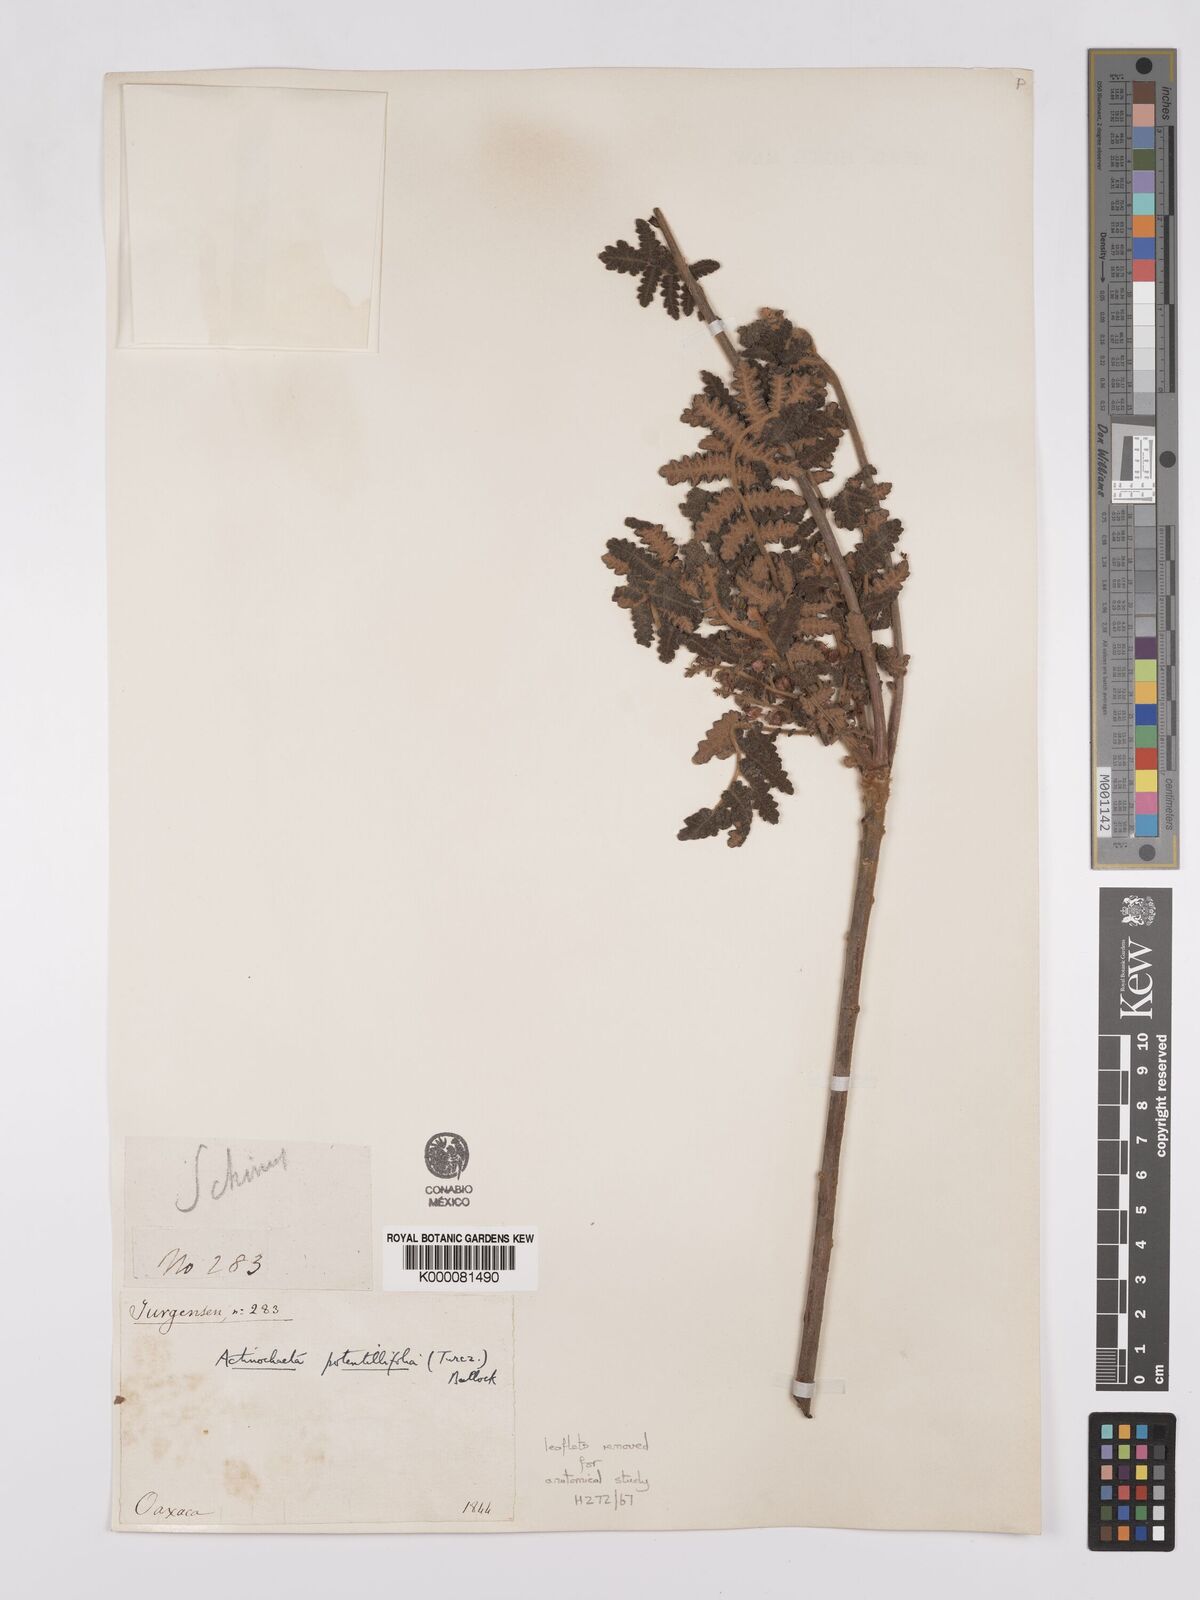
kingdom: Plantae
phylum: Tracheophyta
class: Magnoliopsida
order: Sapindales
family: Anacardiaceae
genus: Actinocheita
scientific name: Actinocheita filicina
